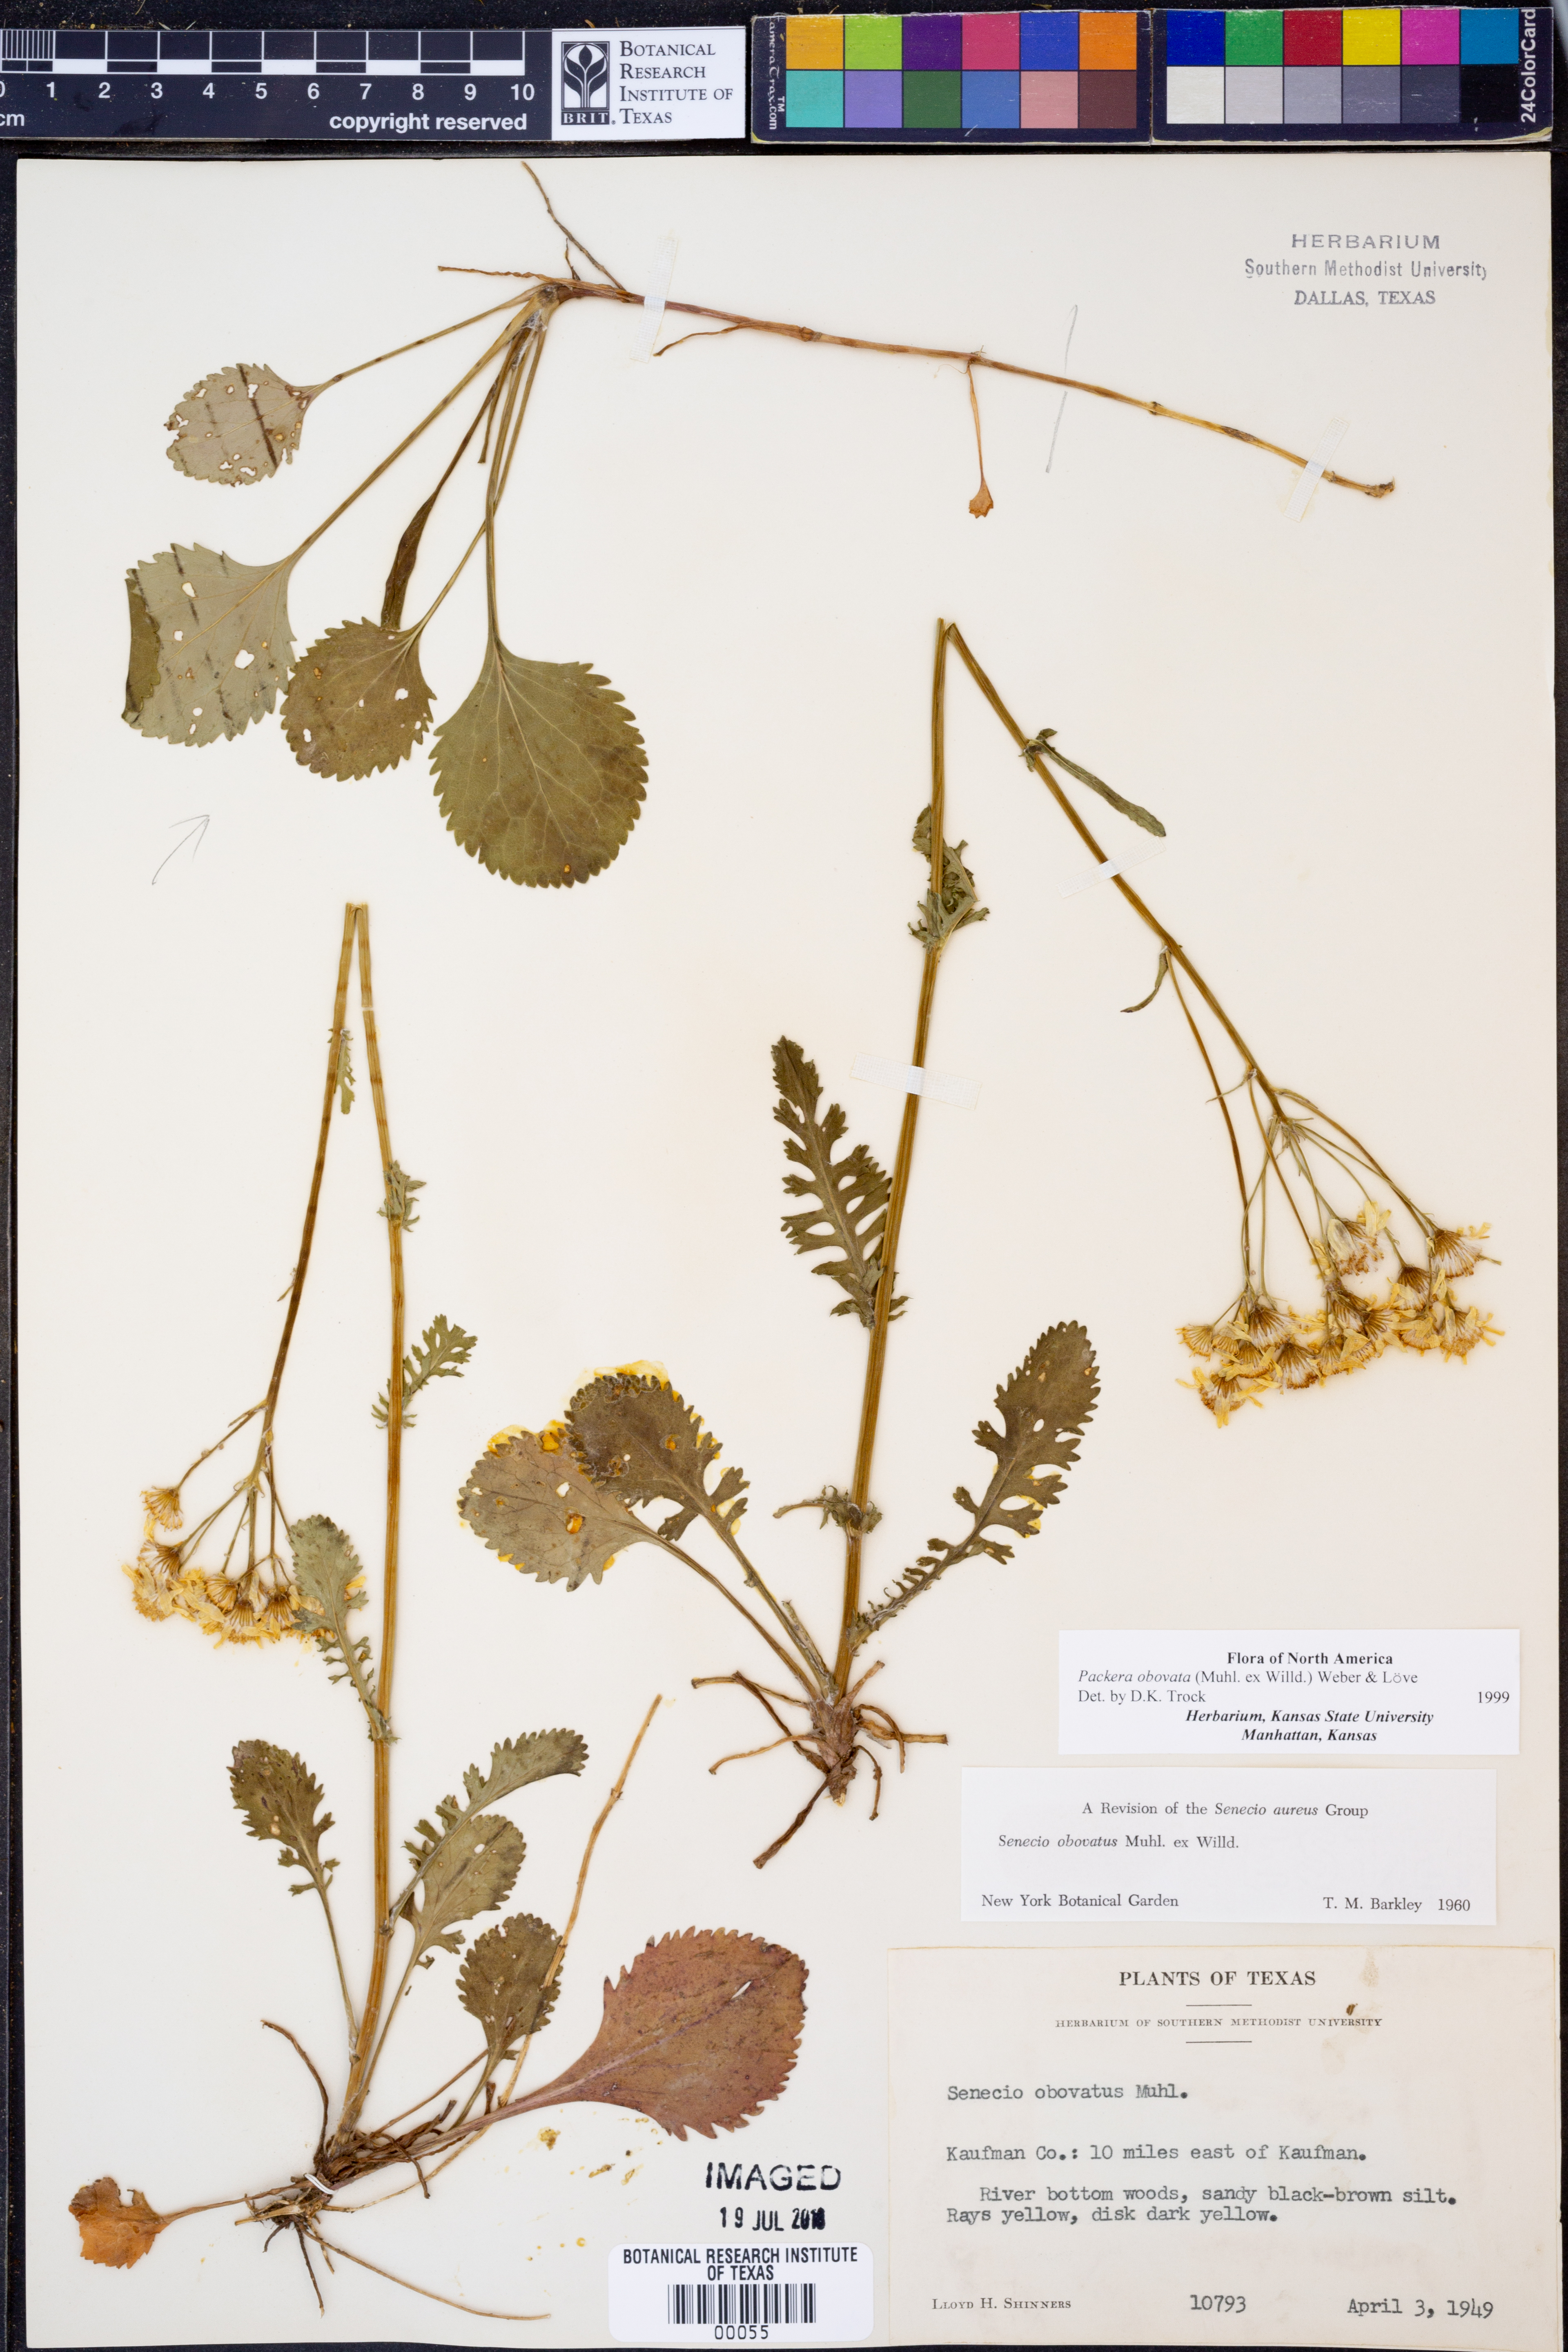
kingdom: Plantae
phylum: Tracheophyta
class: Magnoliopsida
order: Asterales
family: Asteraceae
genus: Packera
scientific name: Packera obovata
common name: Round-leaf ragwort
